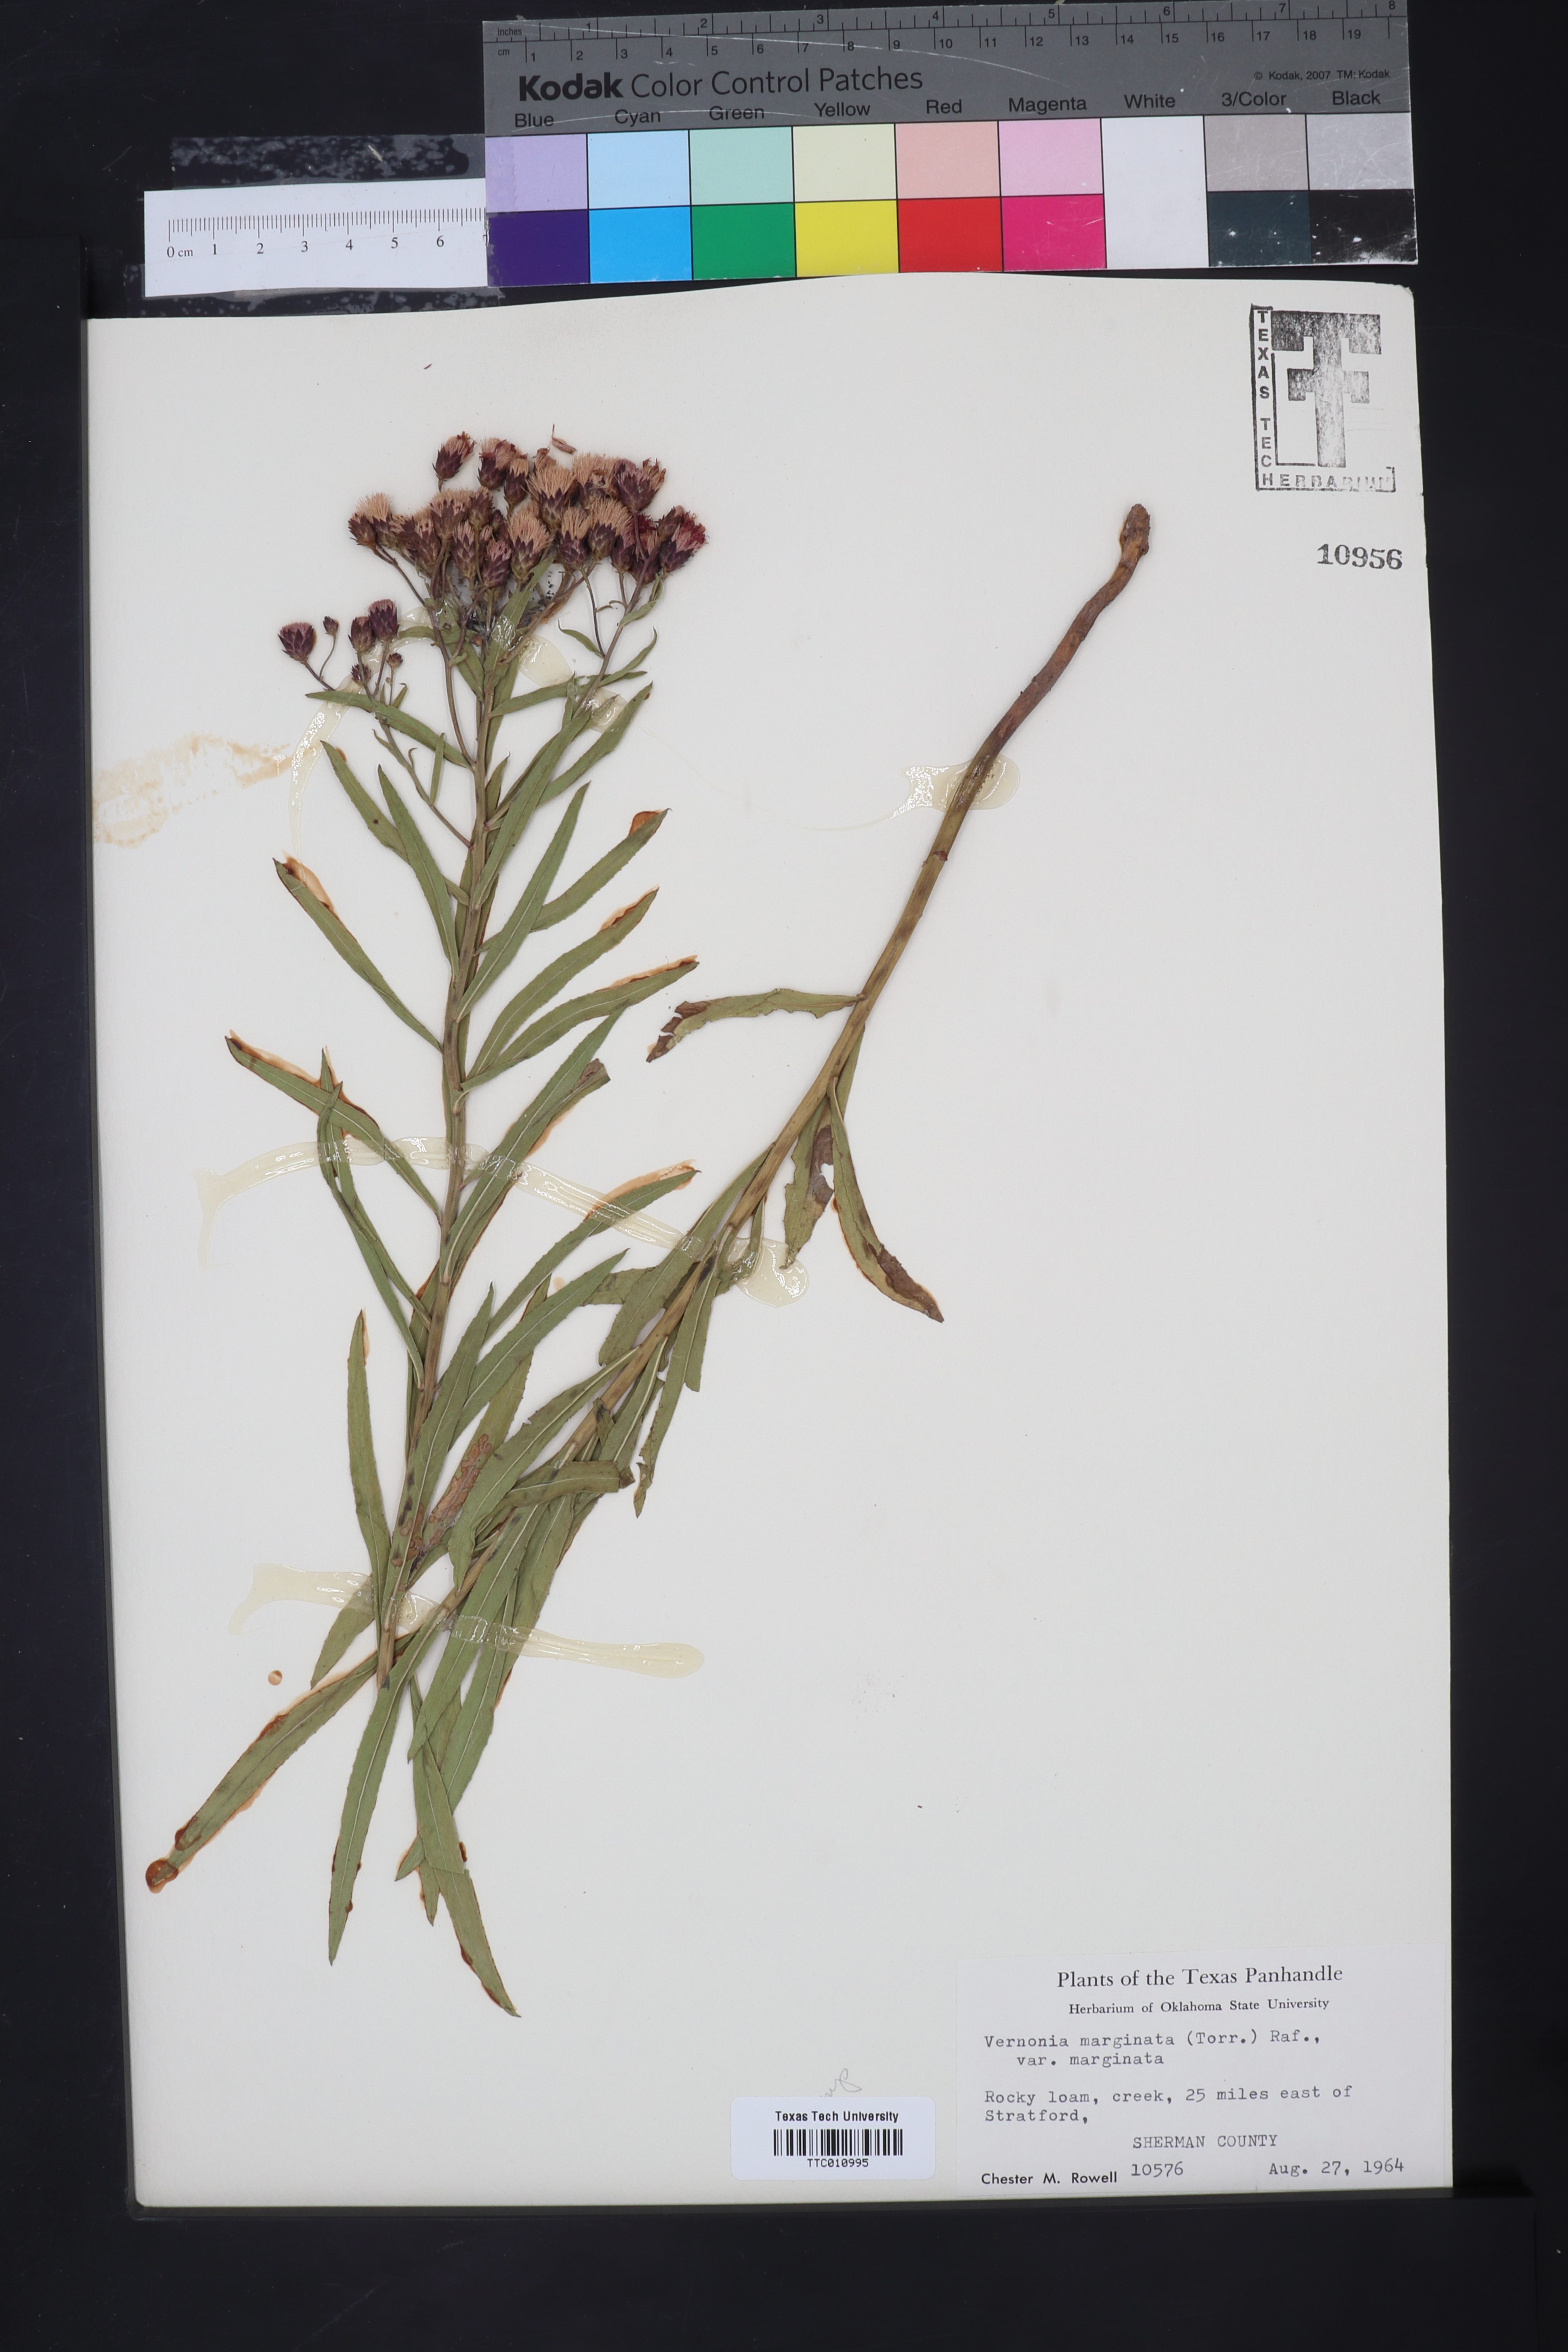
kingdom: Plantae
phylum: Tracheophyta
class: Magnoliopsida
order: Asterales
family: Asteraceae
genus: Vernonia
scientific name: Vernonia marginata
